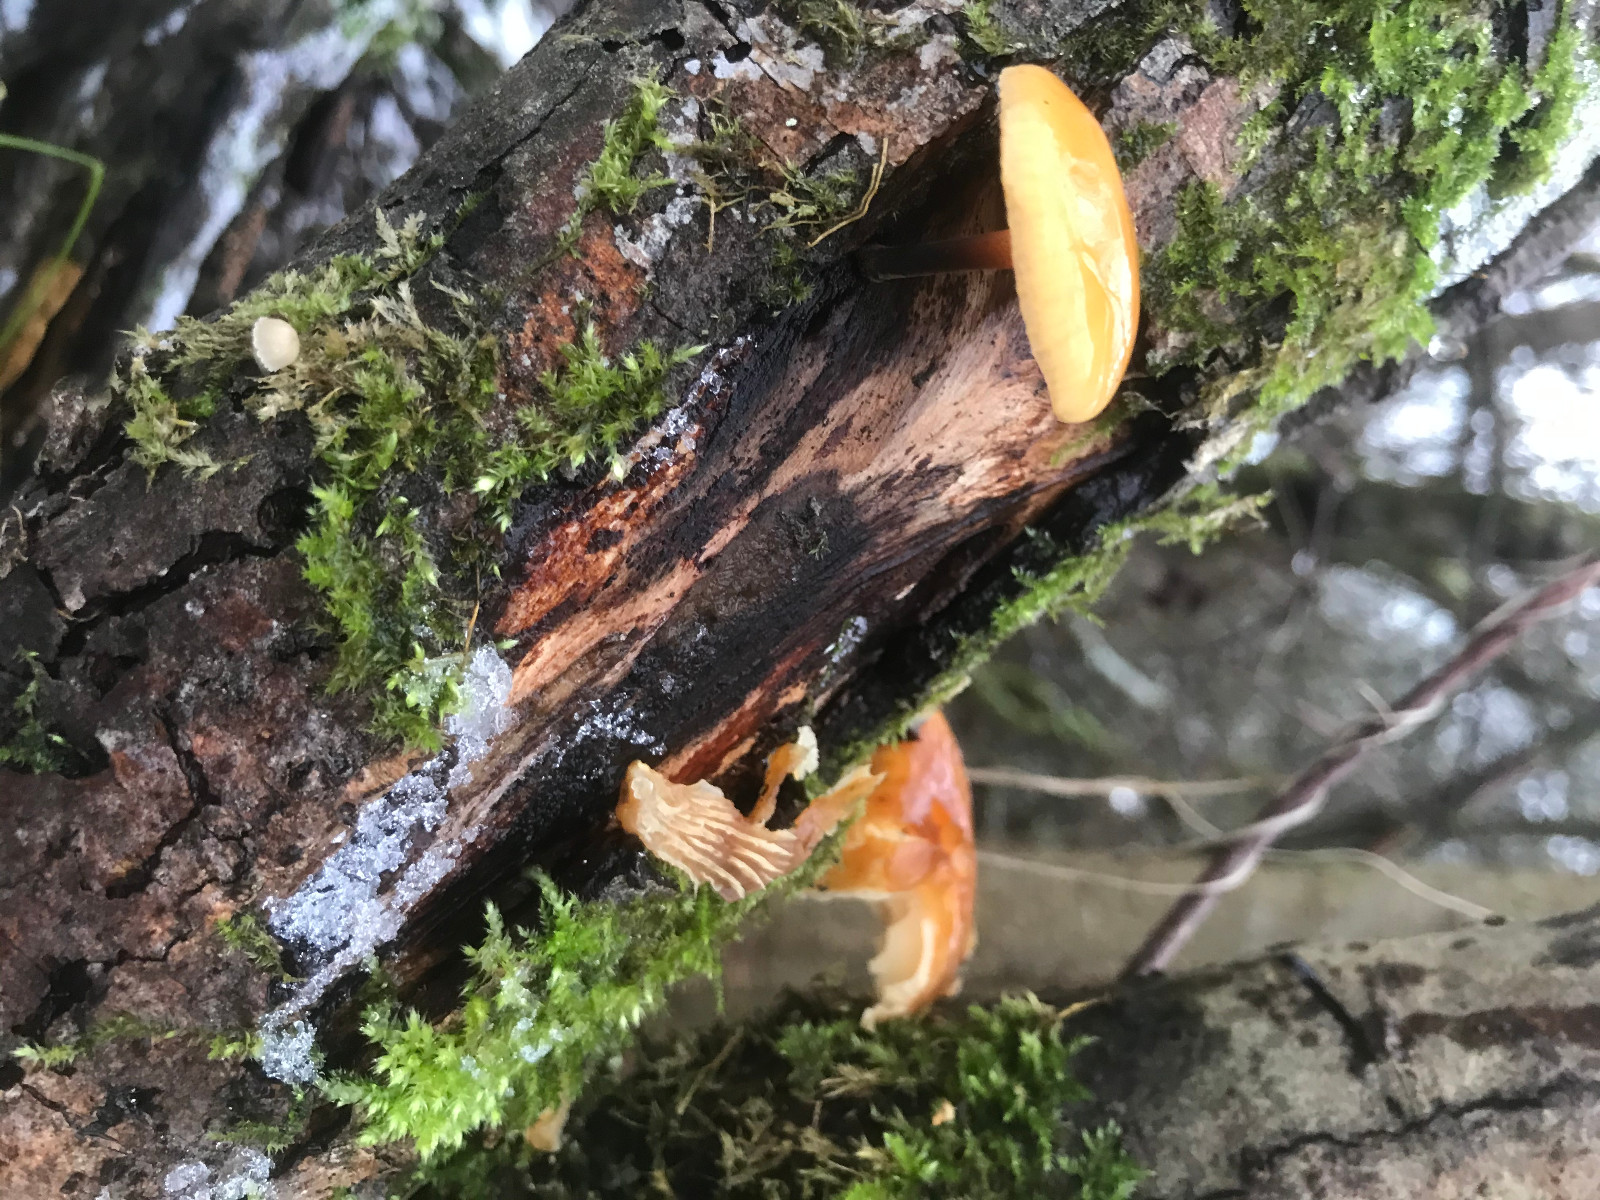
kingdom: Fungi
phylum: Basidiomycota
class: Agaricomycetes
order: Agaricales
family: Physalacriaceae
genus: Flammulina
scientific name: Flammulina
